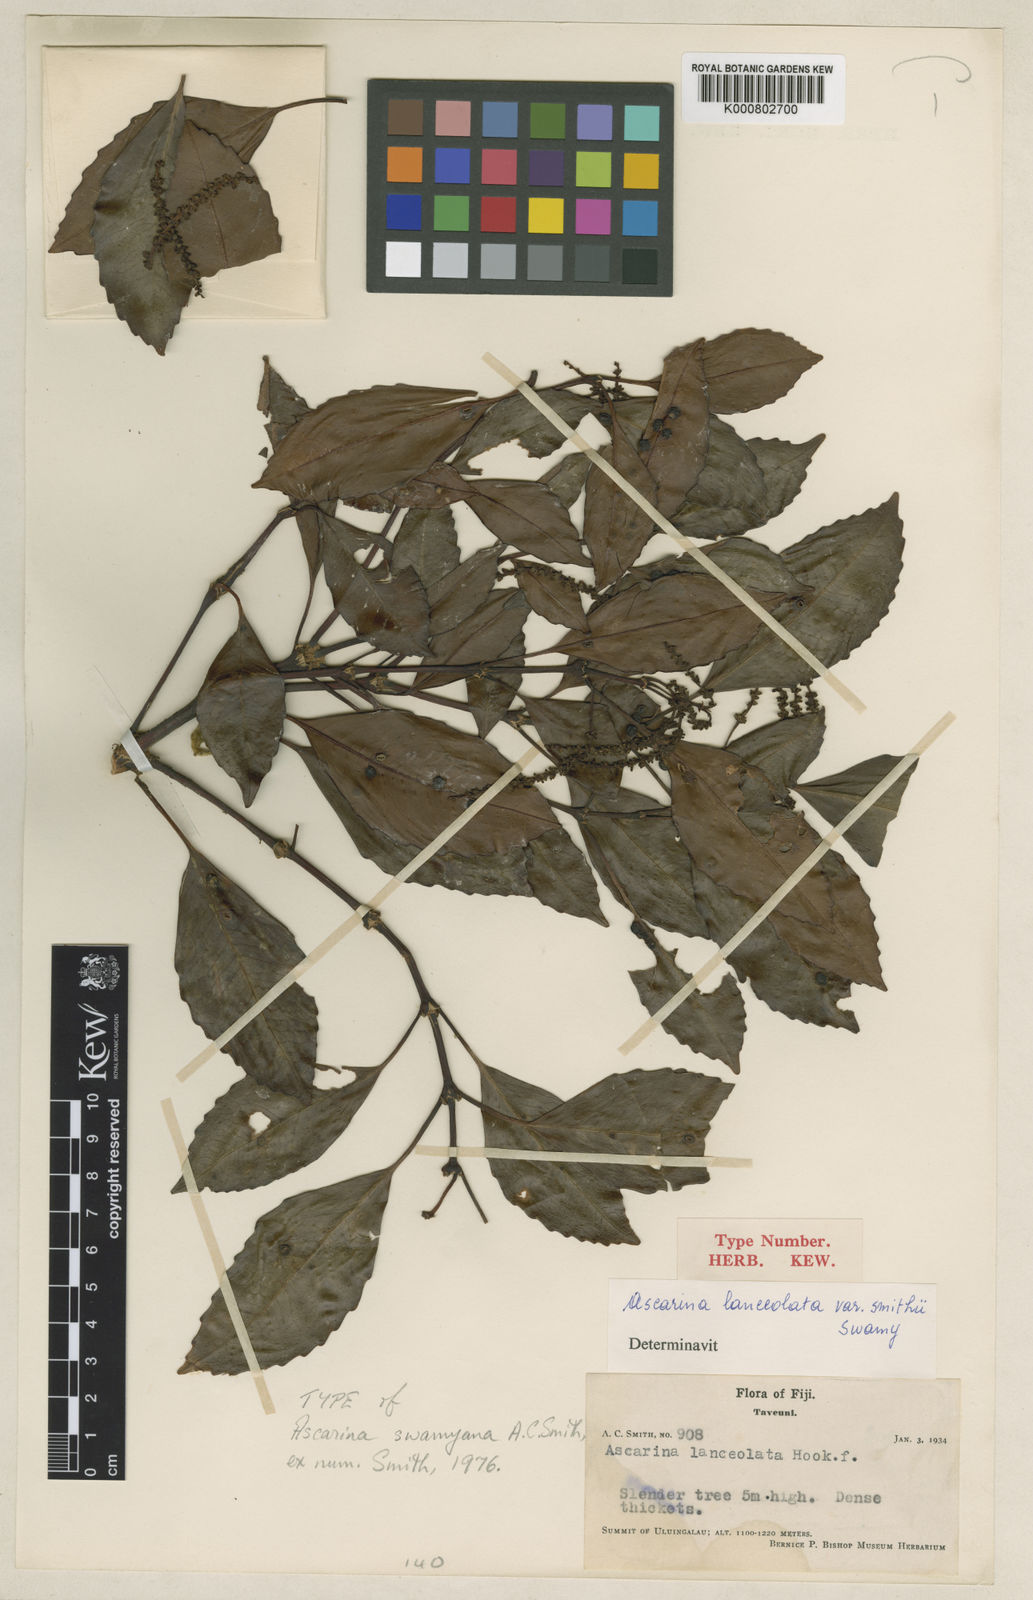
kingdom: Plantae
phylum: Tracheophyta
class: Magnoliopsida
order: Chloranthales
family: Chloranthaceae
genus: Ascarina
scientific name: Ascarina swamyana
